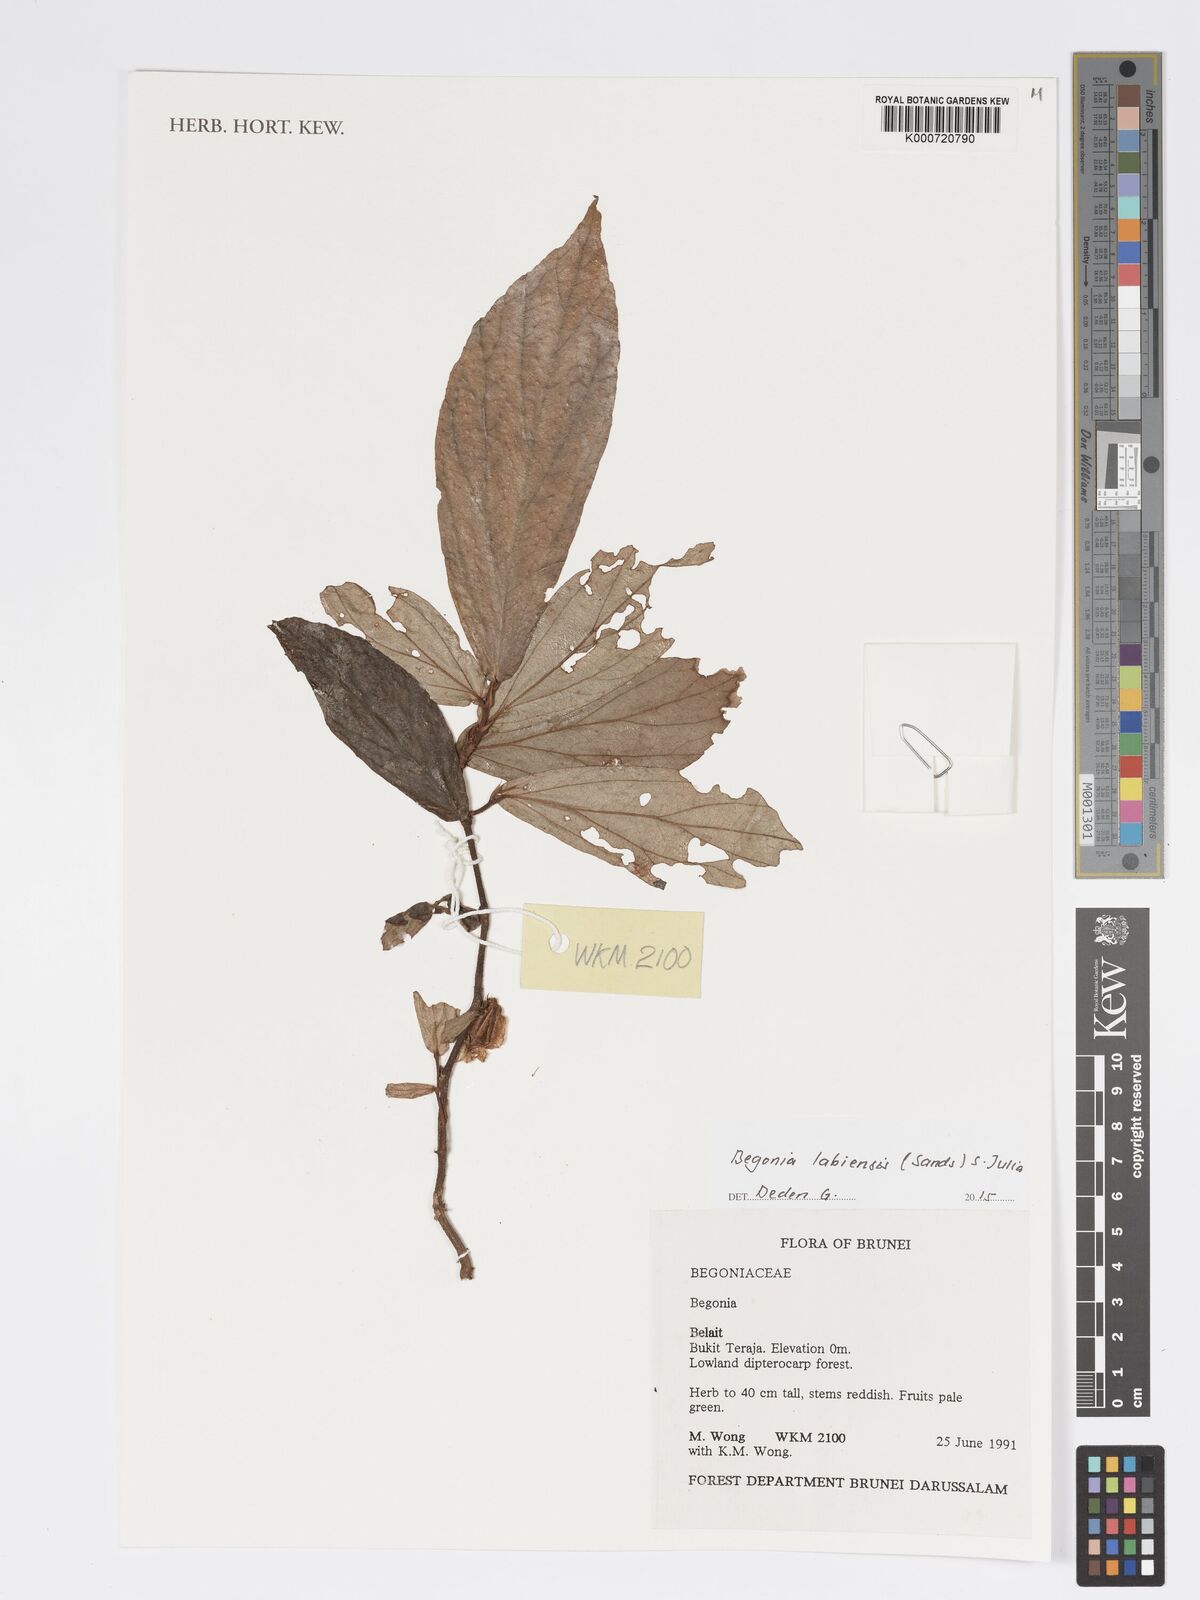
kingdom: Plantae
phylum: Tracheophyta
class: Magnoliopsida
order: Cucurbitales
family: Begoniaceae
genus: Begonia
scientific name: Begonia labiensis
